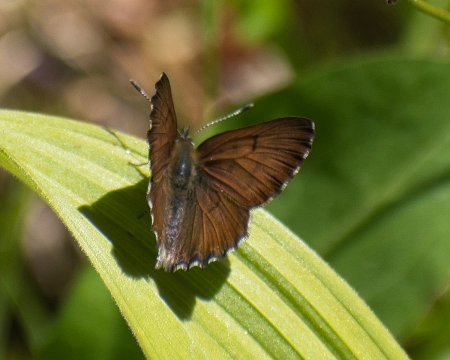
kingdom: Animalia
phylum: Arthropoda
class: Insecta
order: Lepidoptera
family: Lycaenidae
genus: Lycaena
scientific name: Lycaena mariposa
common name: Mariposa Copper
